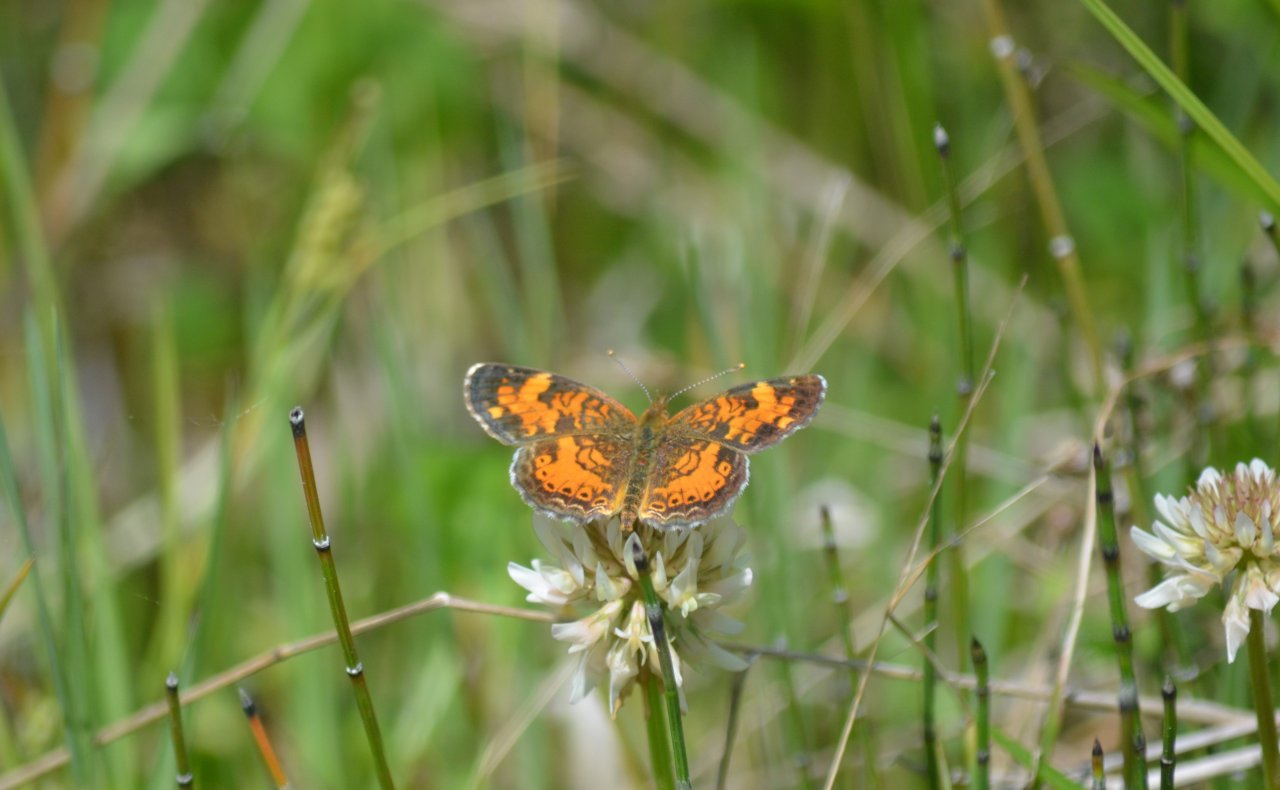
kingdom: Animalia
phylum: Arthropoda
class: Insecta
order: Lepidoptera
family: Nymphalidae
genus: Phyciodes
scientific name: Phyciodes tharos
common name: Northern Crescent
